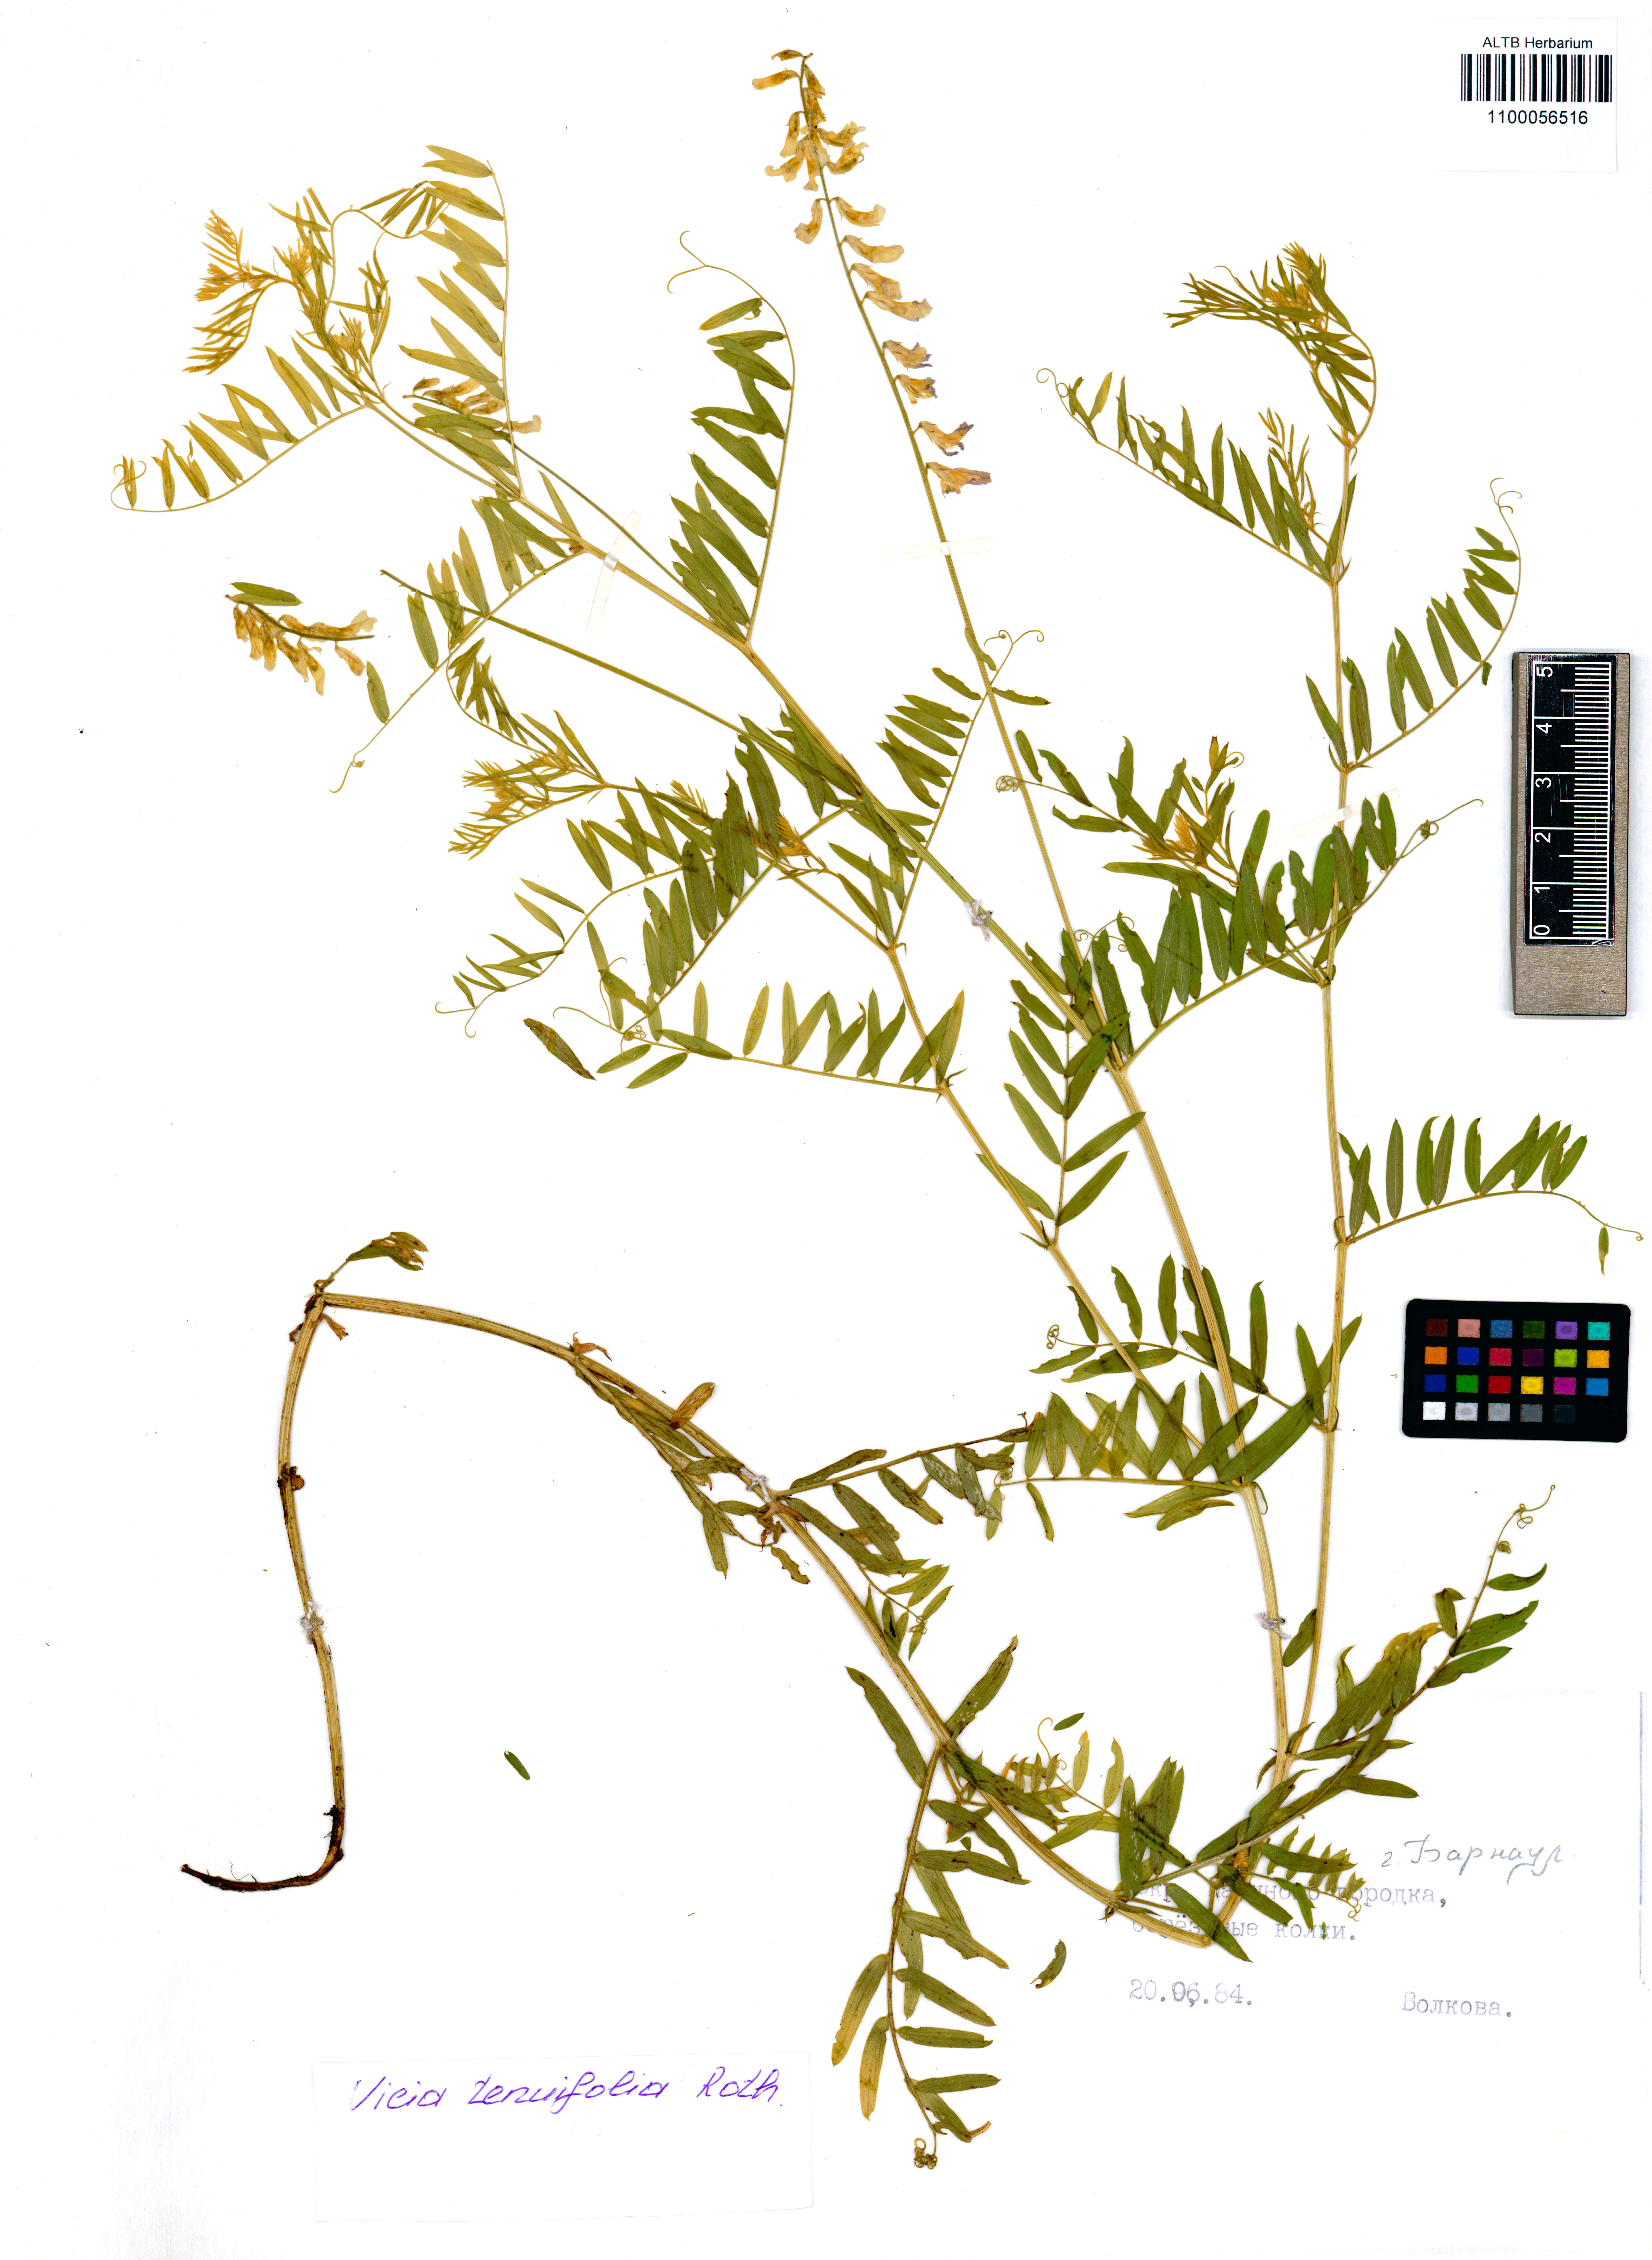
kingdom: Plantae
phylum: Tracheophyta
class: Magnoliopsida
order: Fabales
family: Fabaceae
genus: Vicia
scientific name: Vicia tenuifolia
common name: Fine-leaved vetch
